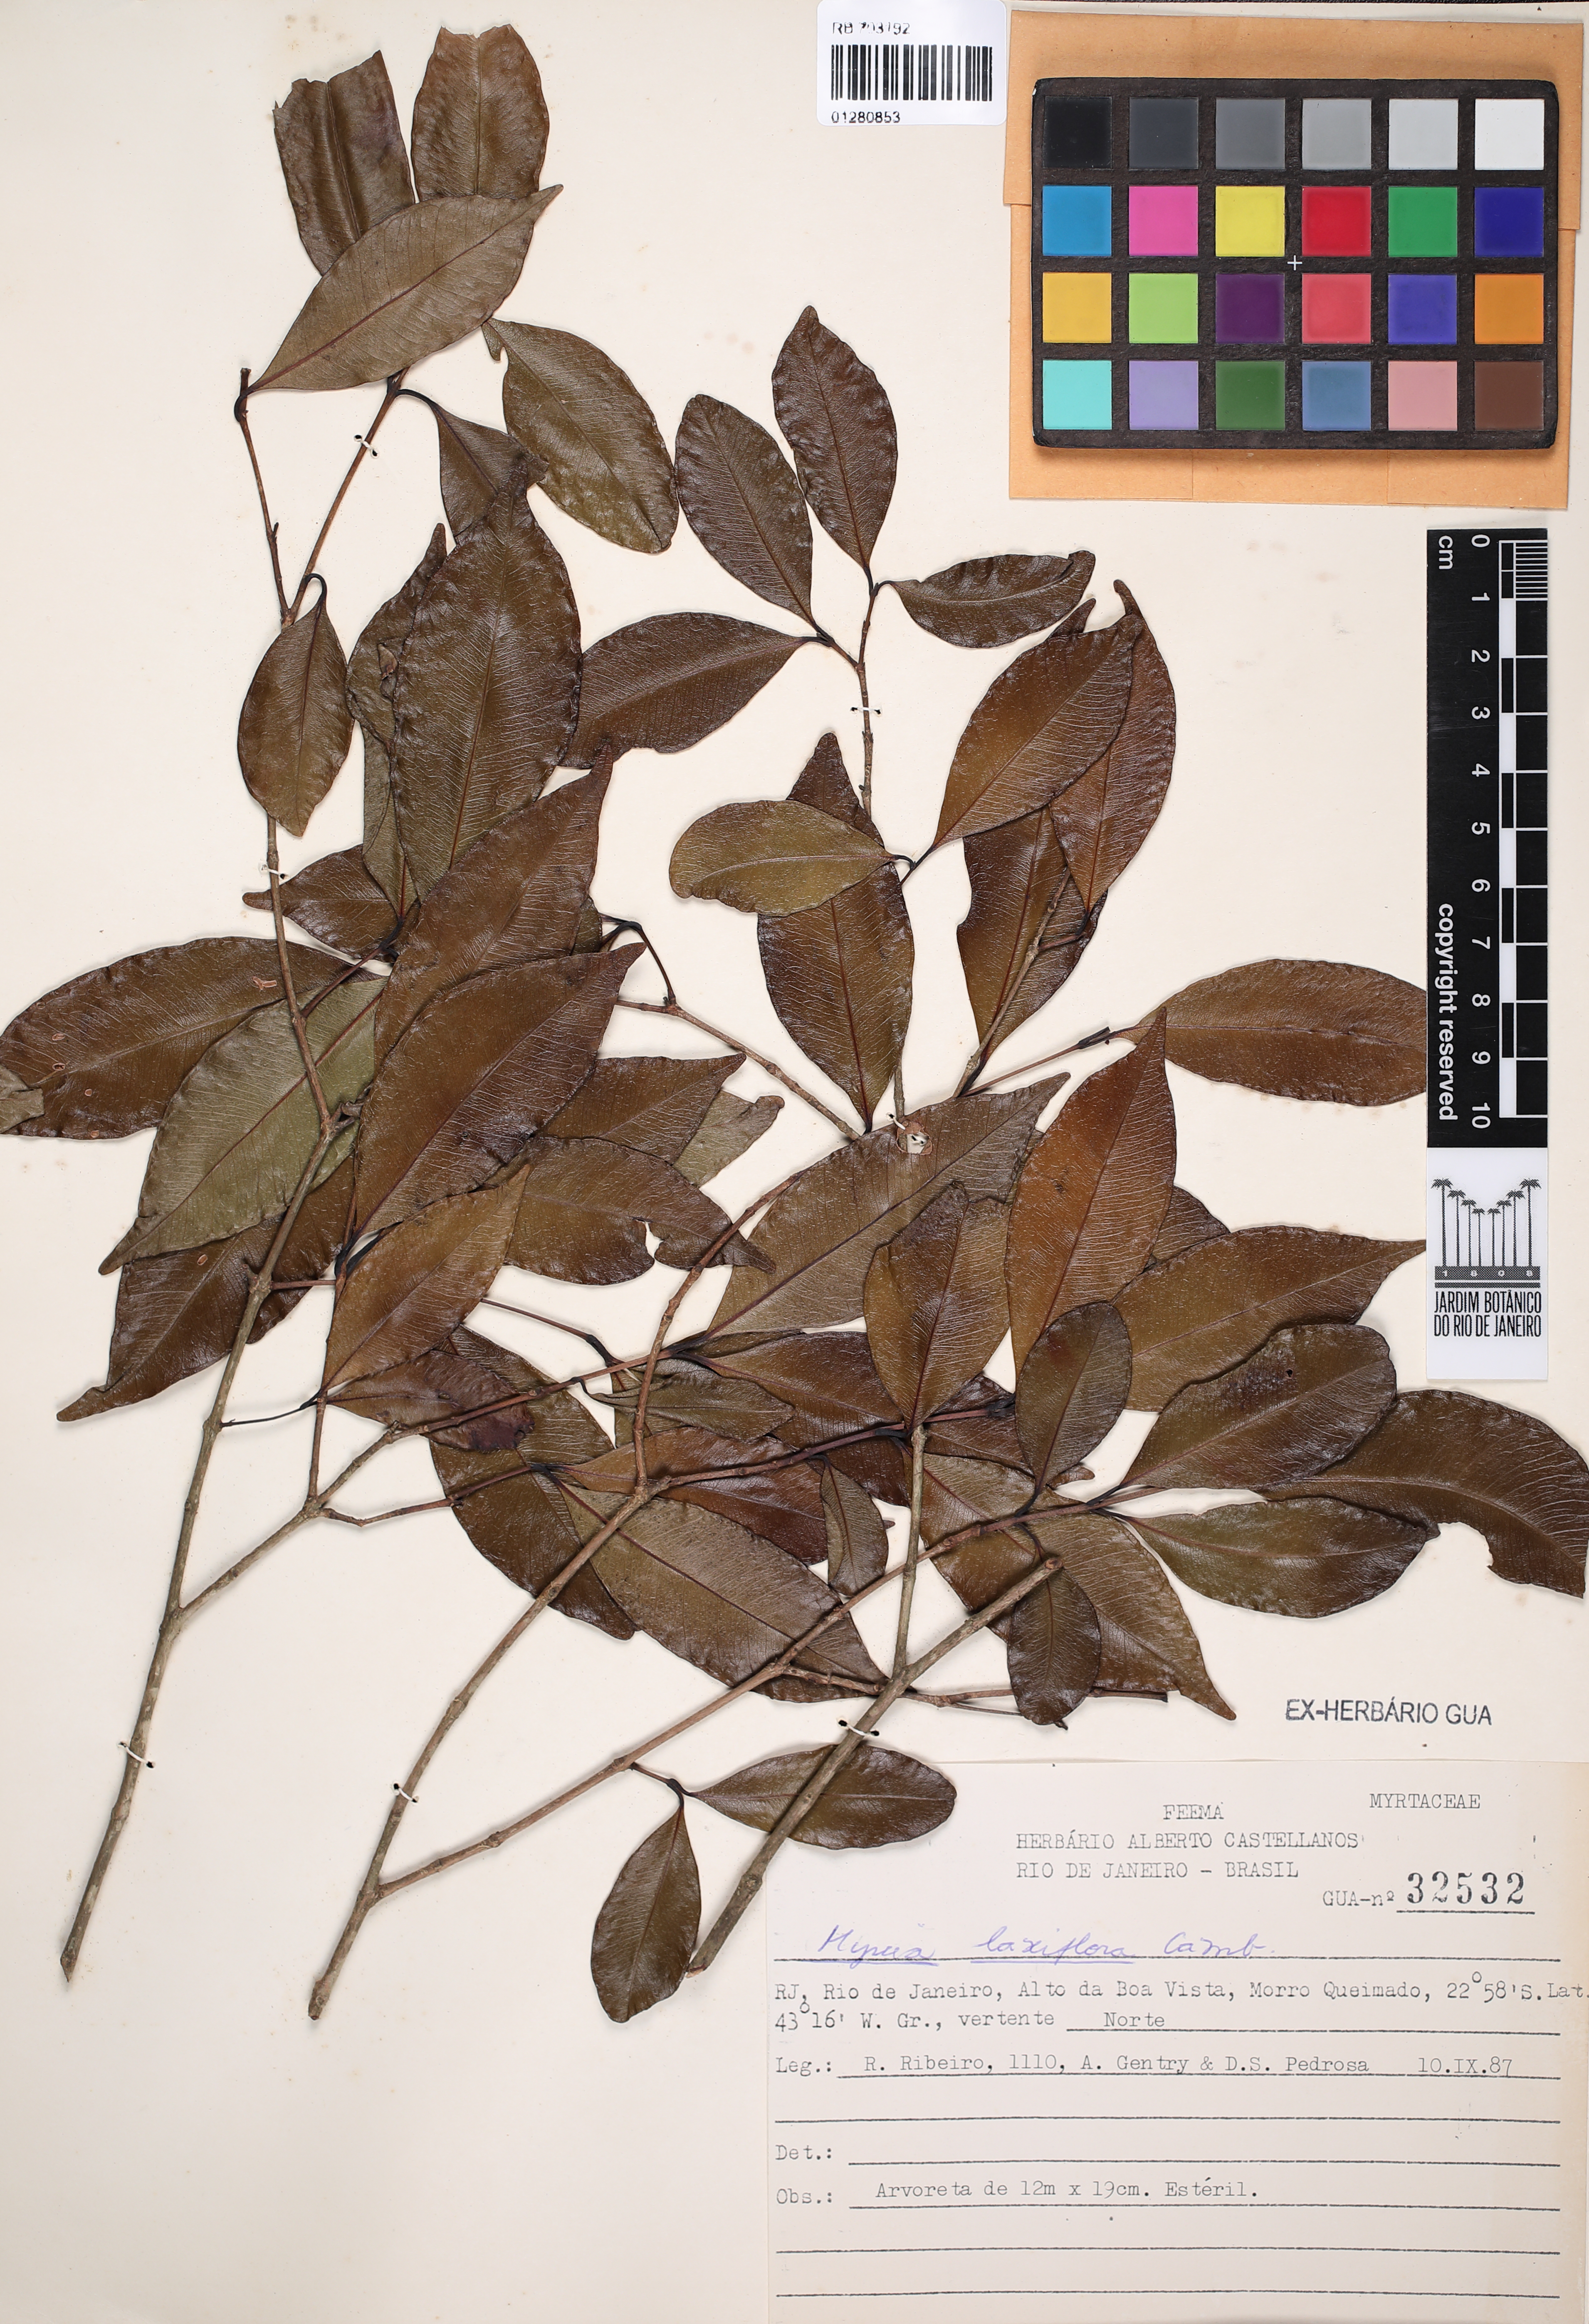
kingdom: Plantae
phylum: Tracheophyta
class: Magnoliopsida
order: Myrtales
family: Myrtaceae
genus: Myrcia
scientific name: Myrcia laxiflora
